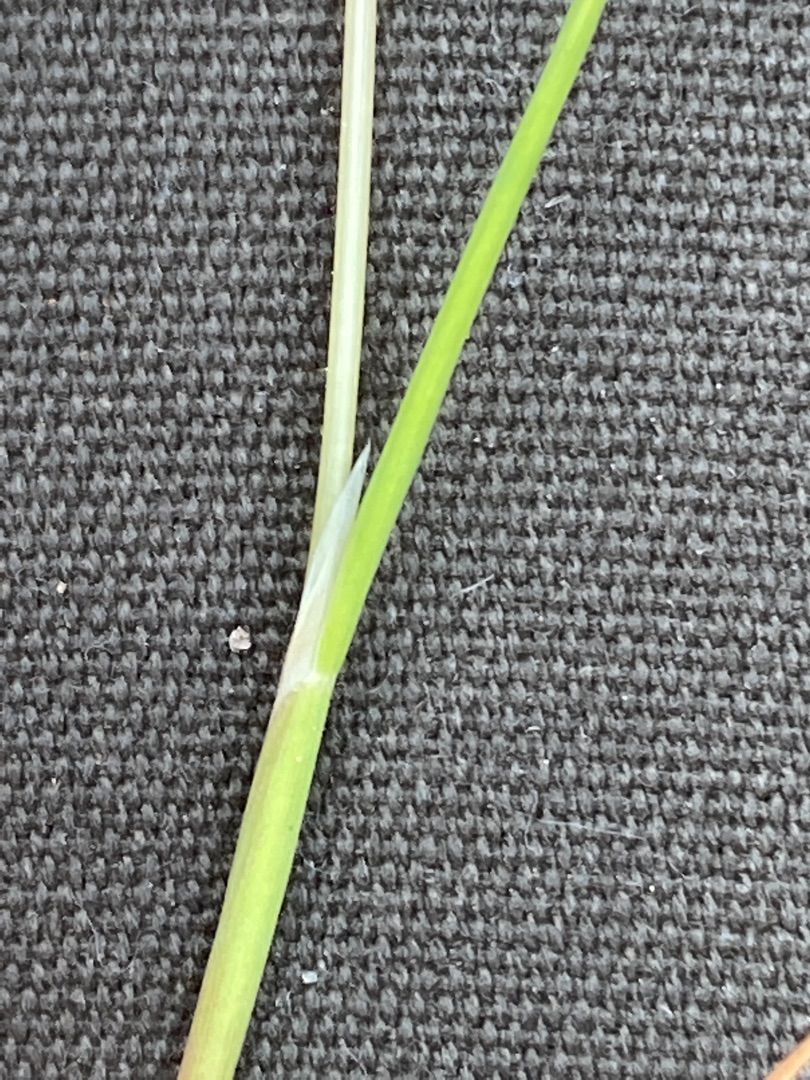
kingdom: Plantae
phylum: Tracheophyta
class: Liliopsida
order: Poales
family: Poaceae
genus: Aira
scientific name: Aira caryophyllea
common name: Udspærret dværgbunke
